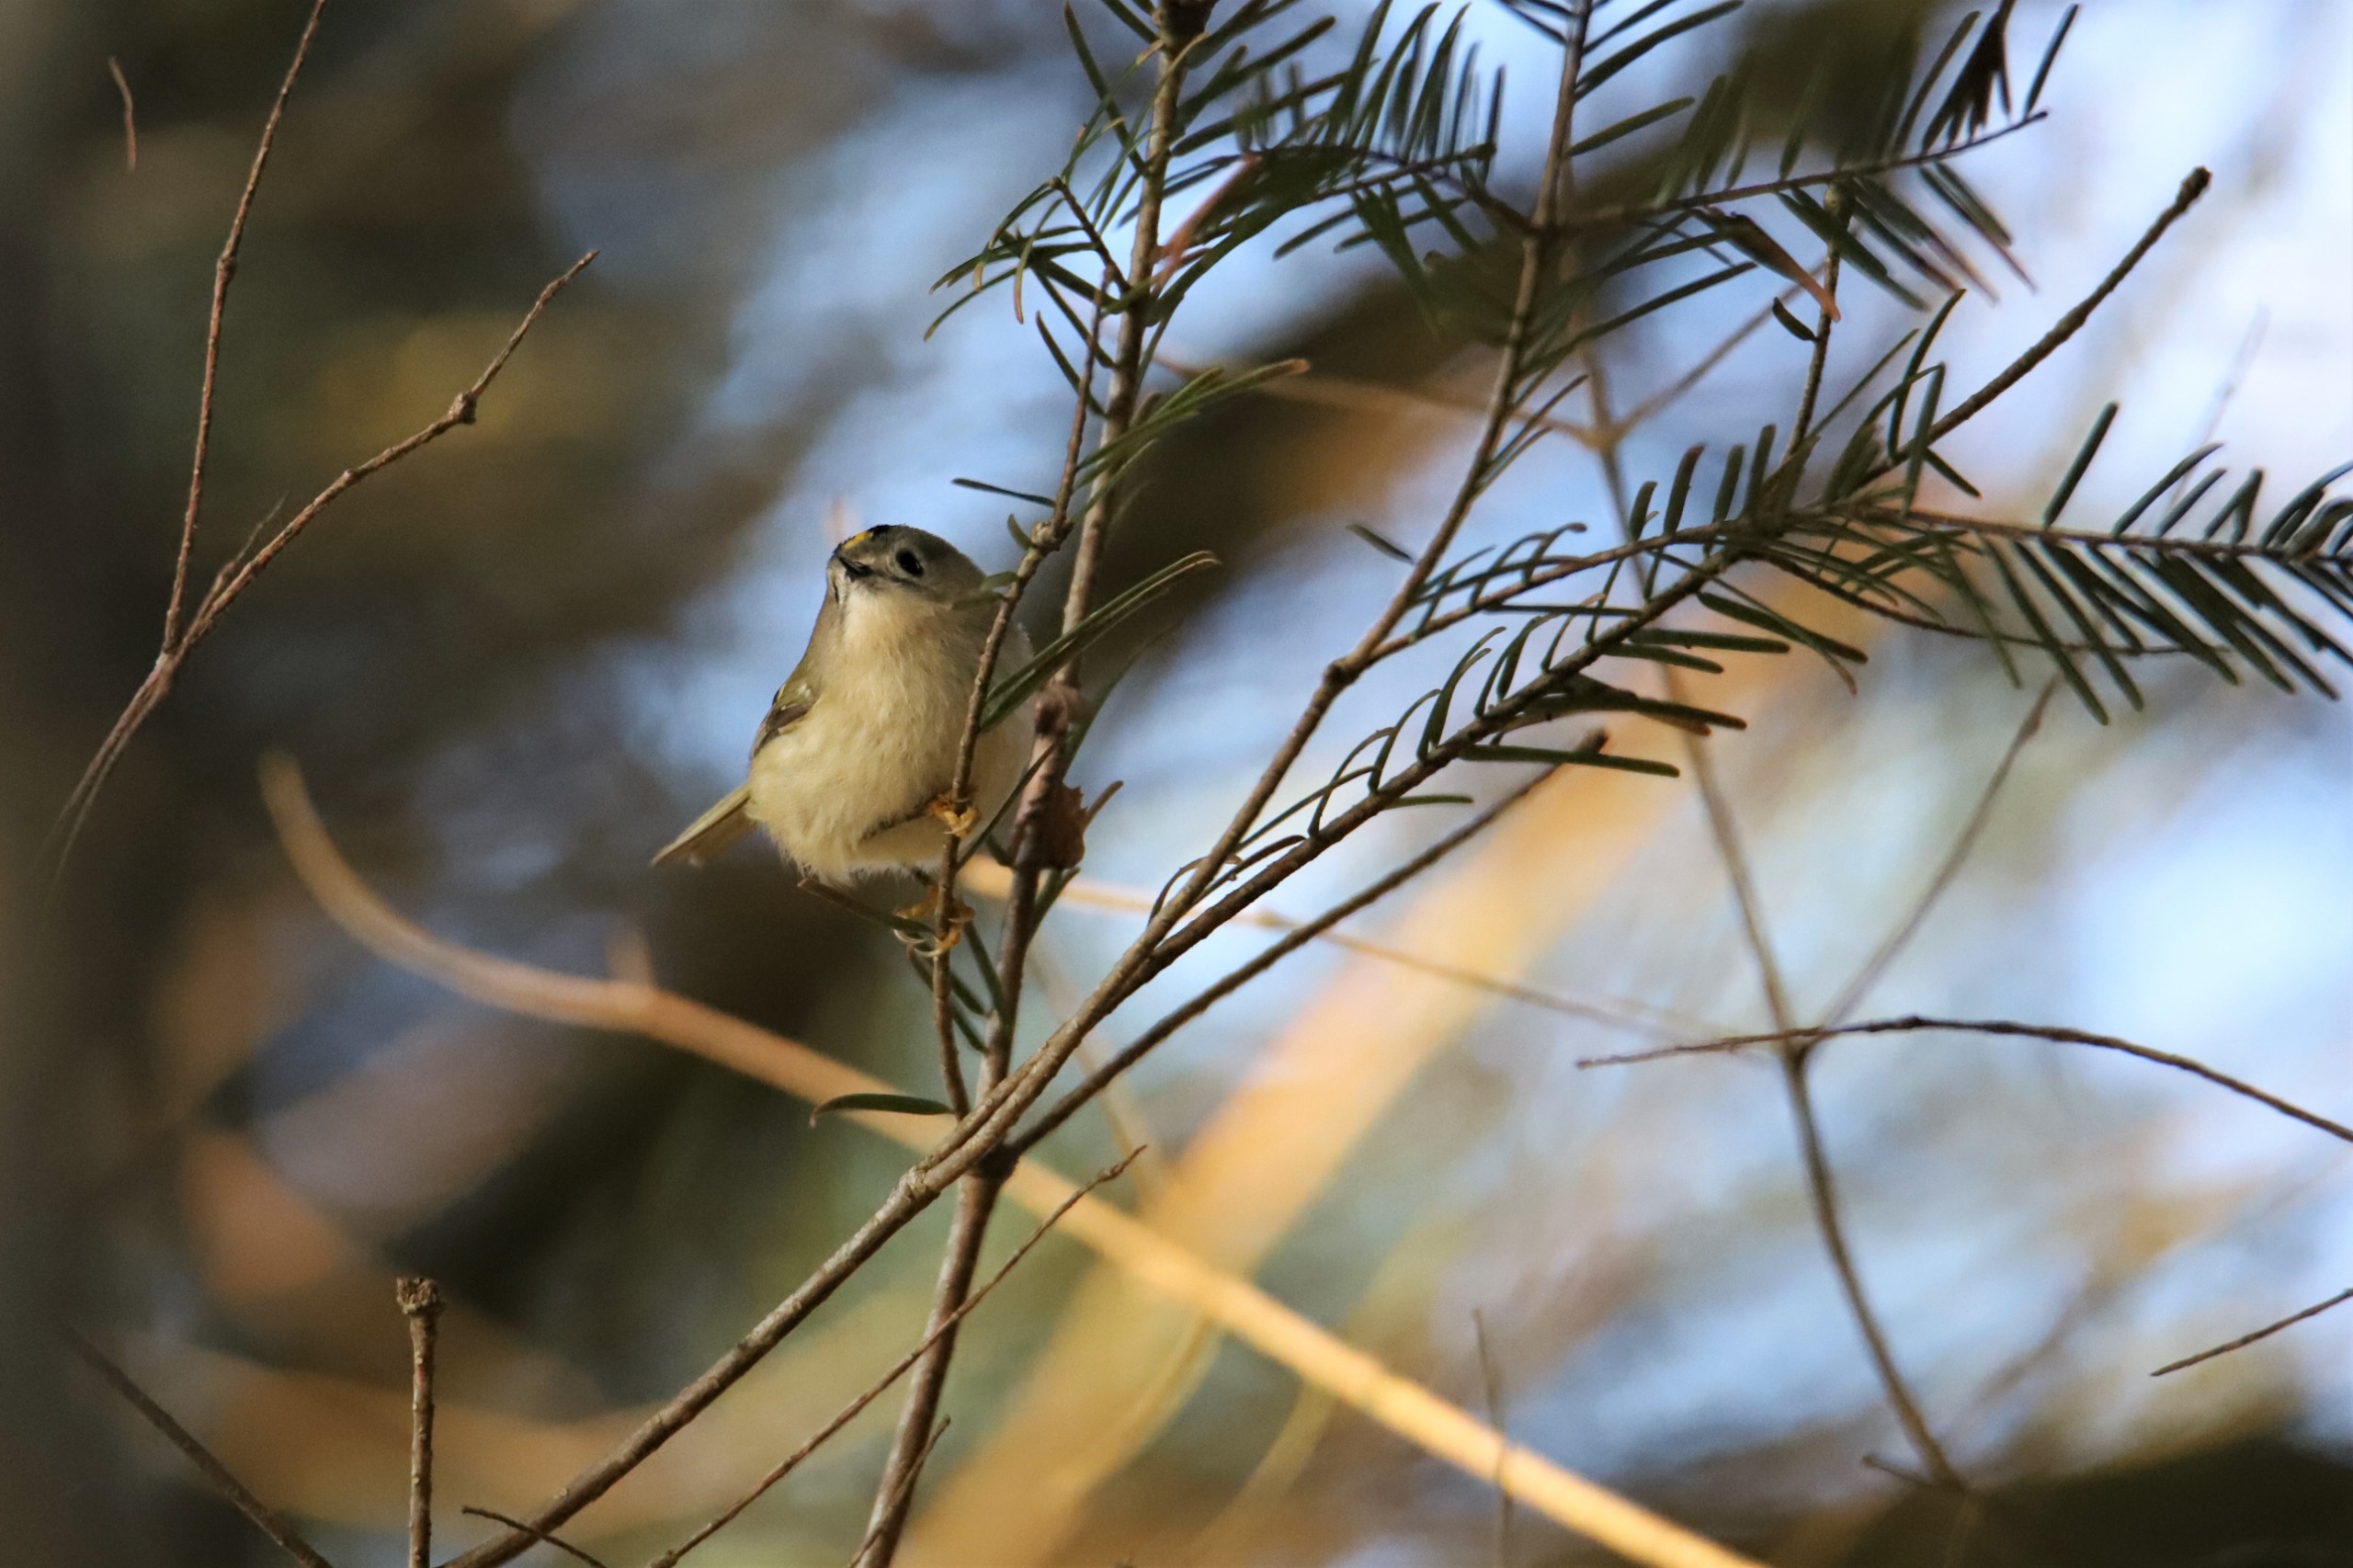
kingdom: Animalia
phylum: Chordata
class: Aves
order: Passeriformes
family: Regulidae
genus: Regulus
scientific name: Regulus regulus
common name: Fuglekonge
